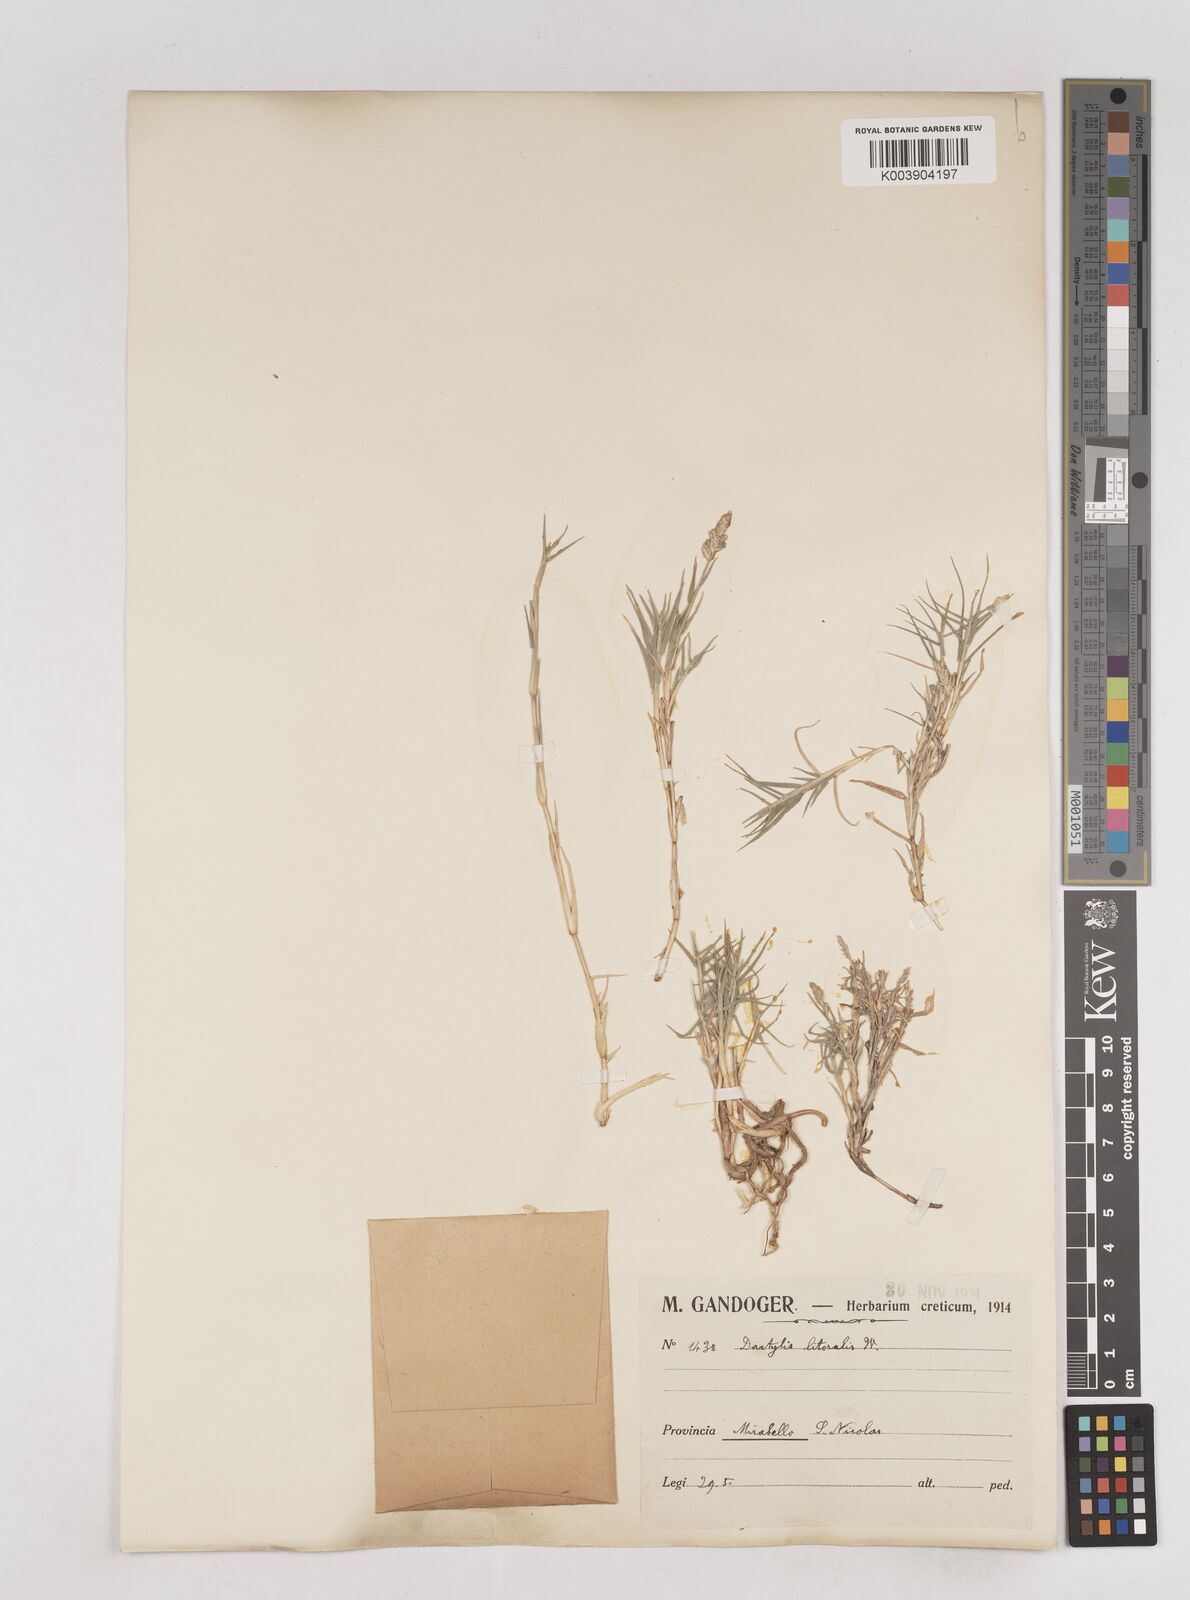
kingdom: Plantae
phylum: Tracheophyta
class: Liliopsida
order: Poales
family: Poaceae
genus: Aeluropus
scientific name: Aeluropus littoralis
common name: Indian walnut
